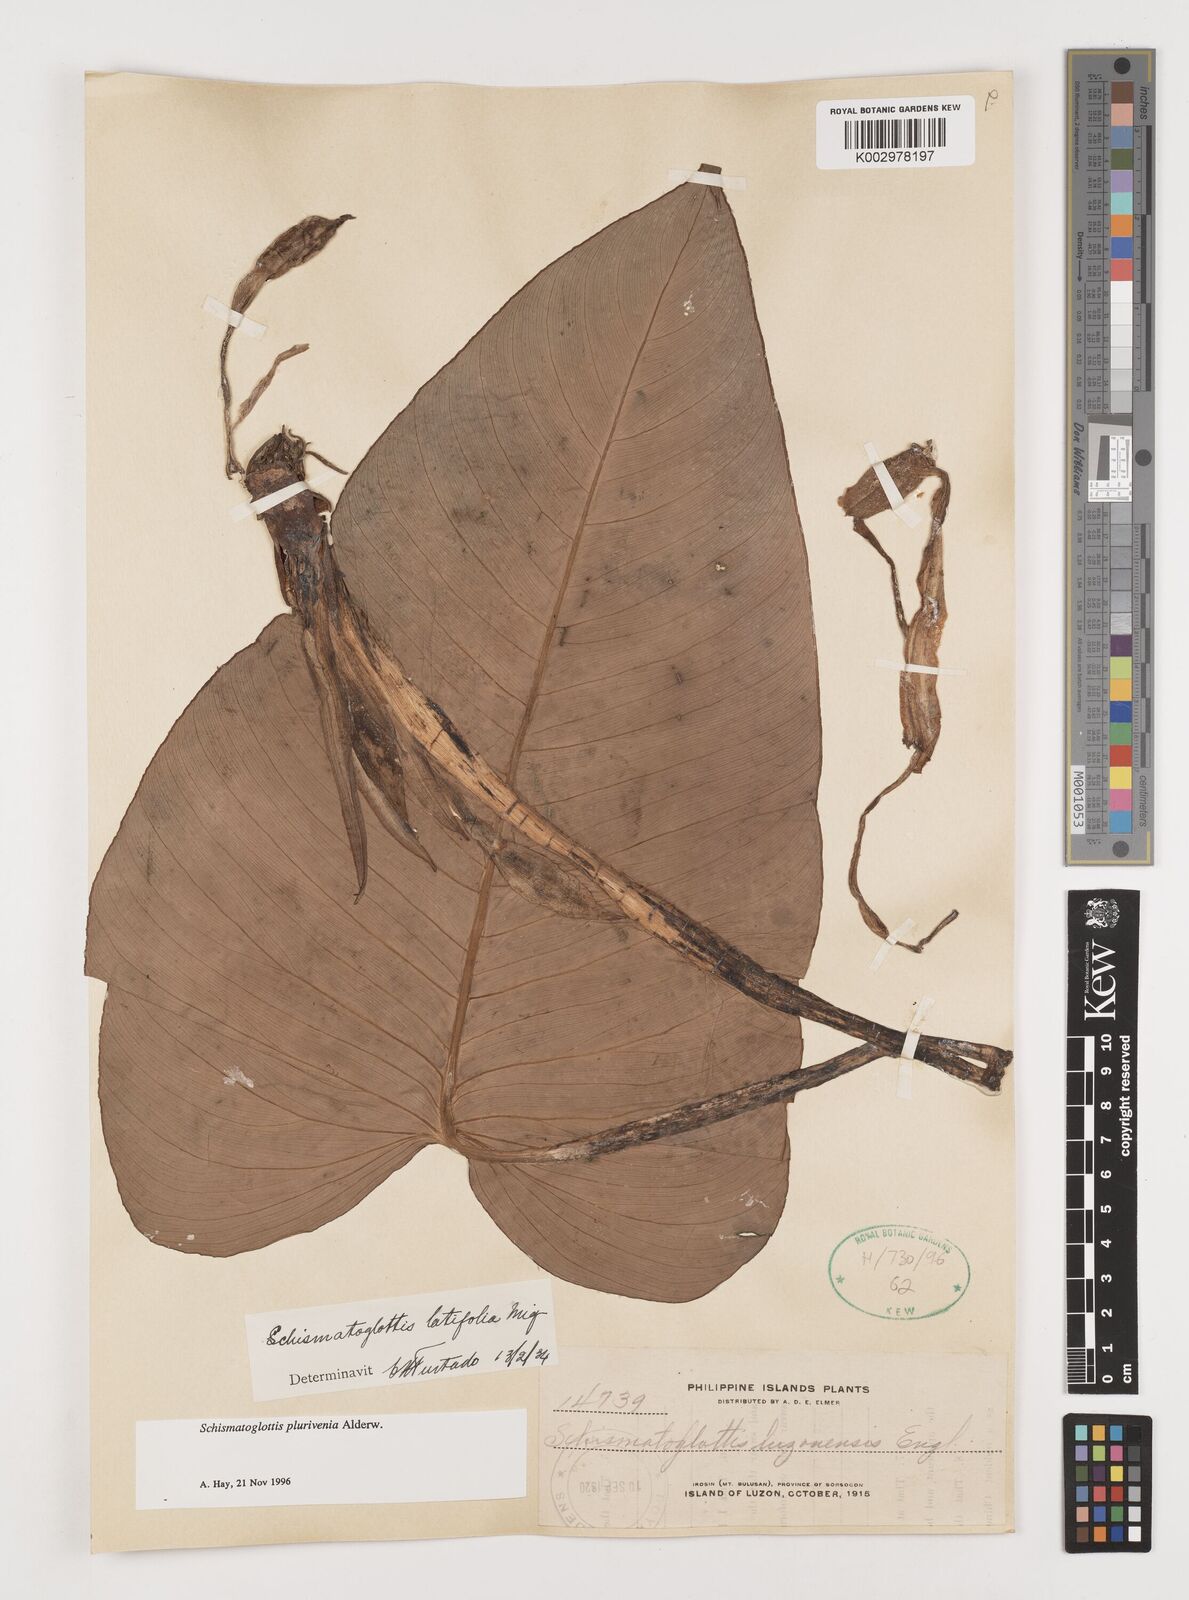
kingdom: Plantae
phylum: Tracheophyta
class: Liliopsida
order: Alismatales
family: Araceae
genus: Schismatoglottis
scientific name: Schismatoglottis plurivenia
